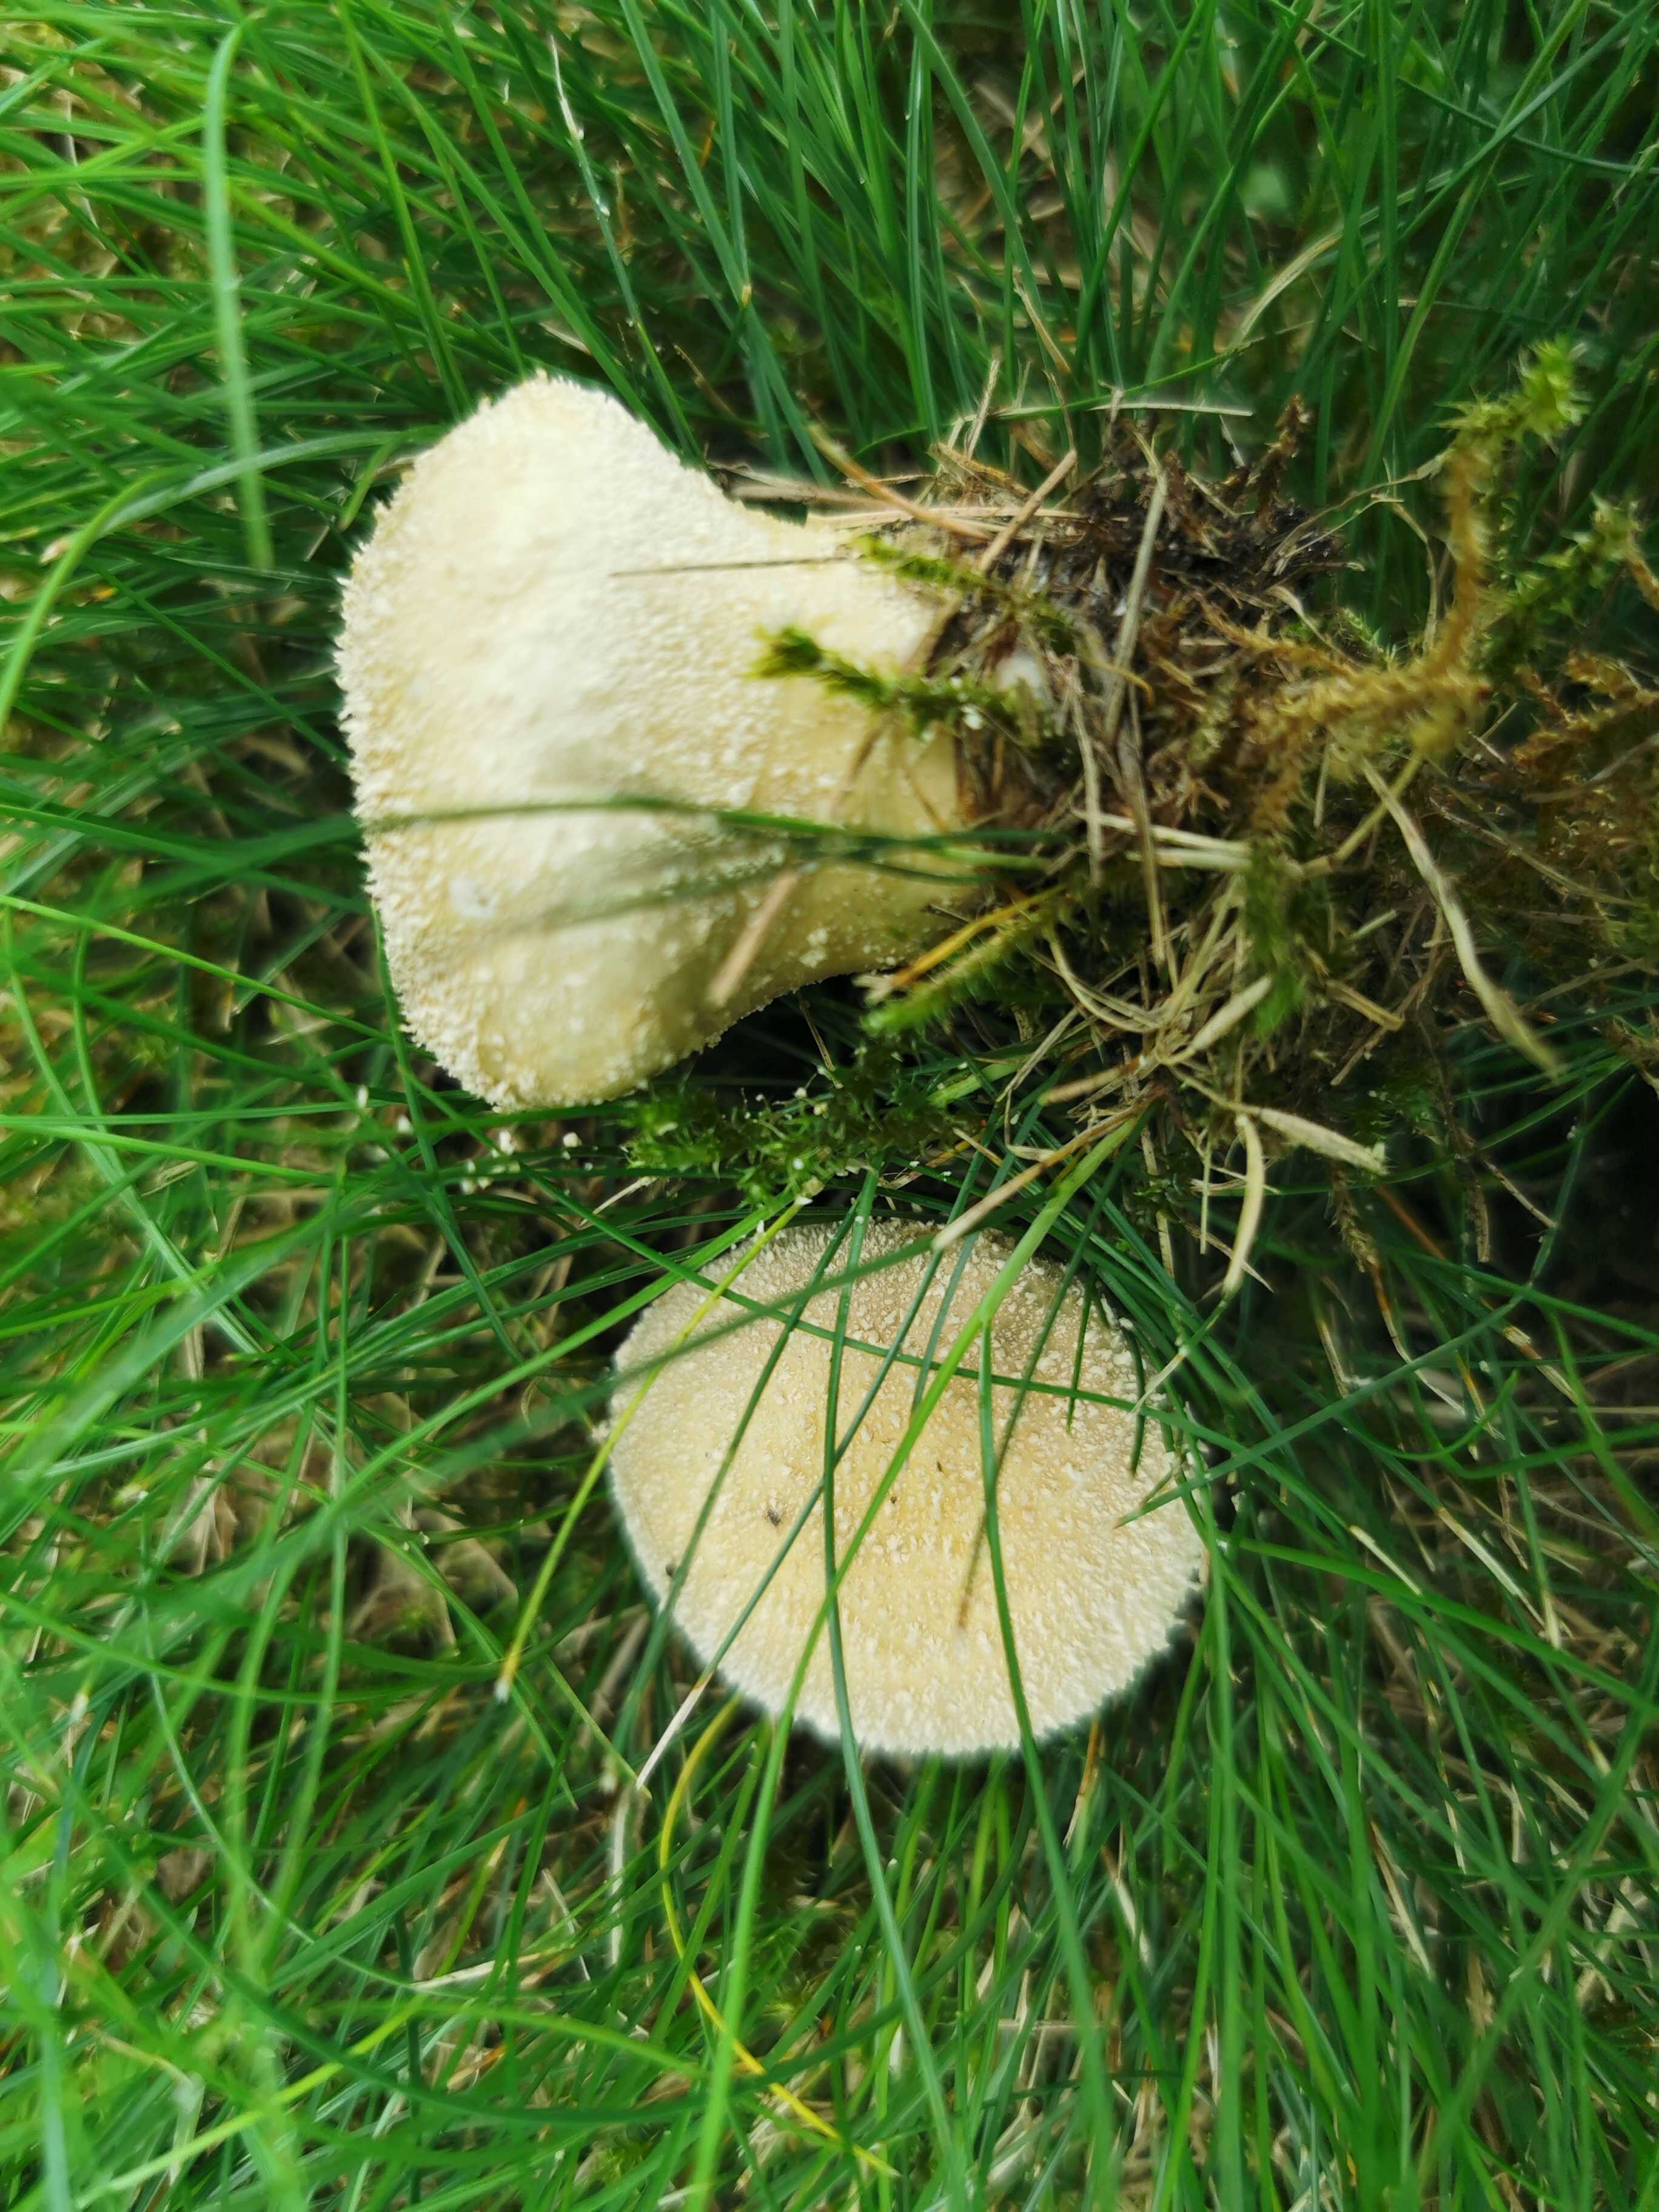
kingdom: Fungi
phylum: Basidiomycota
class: Agaricomycetes
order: Agaricales
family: Lycoperdaceae
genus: Lycoperdon
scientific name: Lycoperdon pratense
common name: flad støvbold
